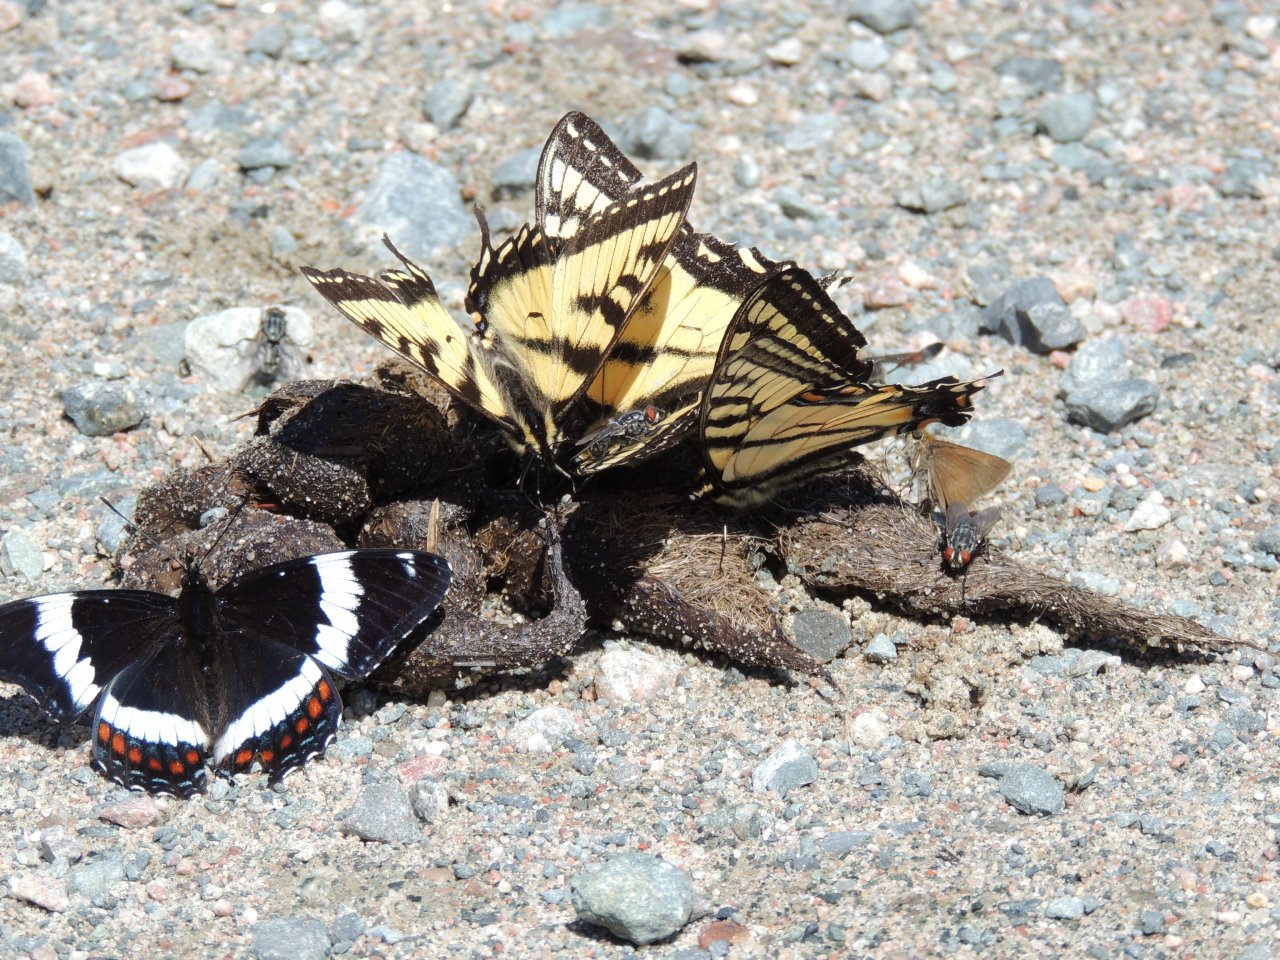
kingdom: Animalia
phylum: Arthropoda
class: Insecta
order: Lepidoptera
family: Nymphalidae
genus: Limenitis
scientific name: Limenitis arthemis
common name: Red-spotted Admiral
